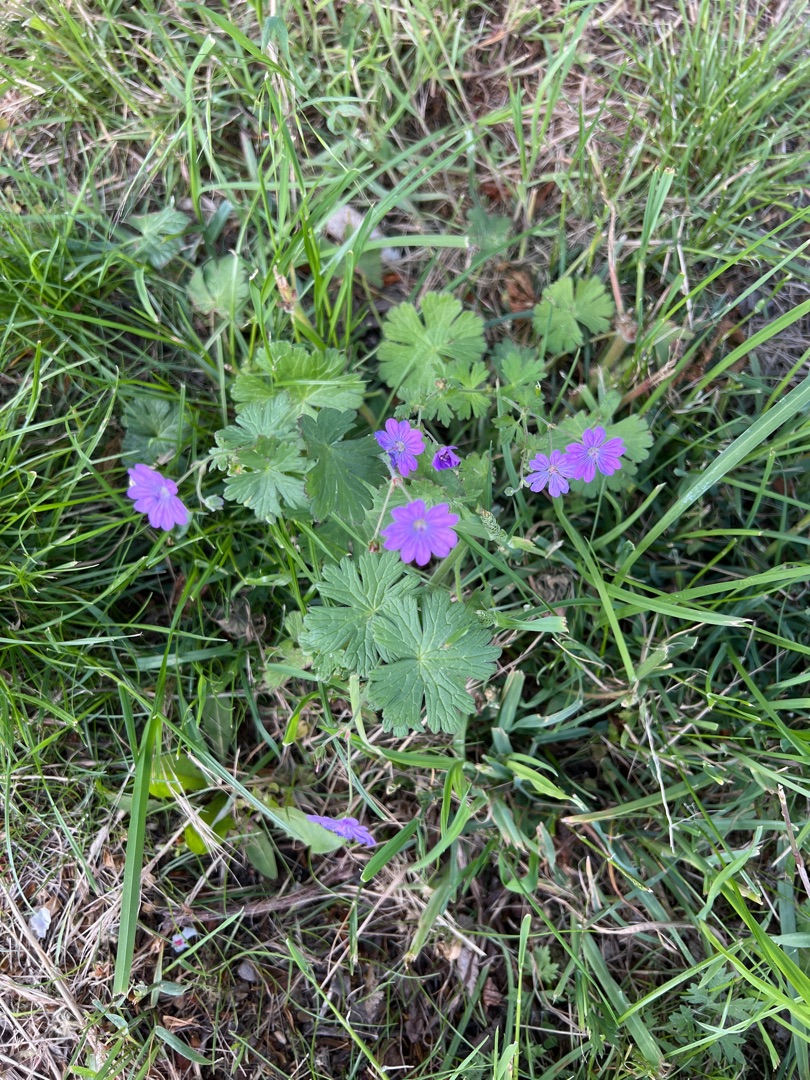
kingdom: Plantae
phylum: Tracheophyta
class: Magnoliopsida
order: Geraniales
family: Geraniaceae
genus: Geranium
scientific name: Geranium pyrenaicum
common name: Pyrenæisk storkenæb
